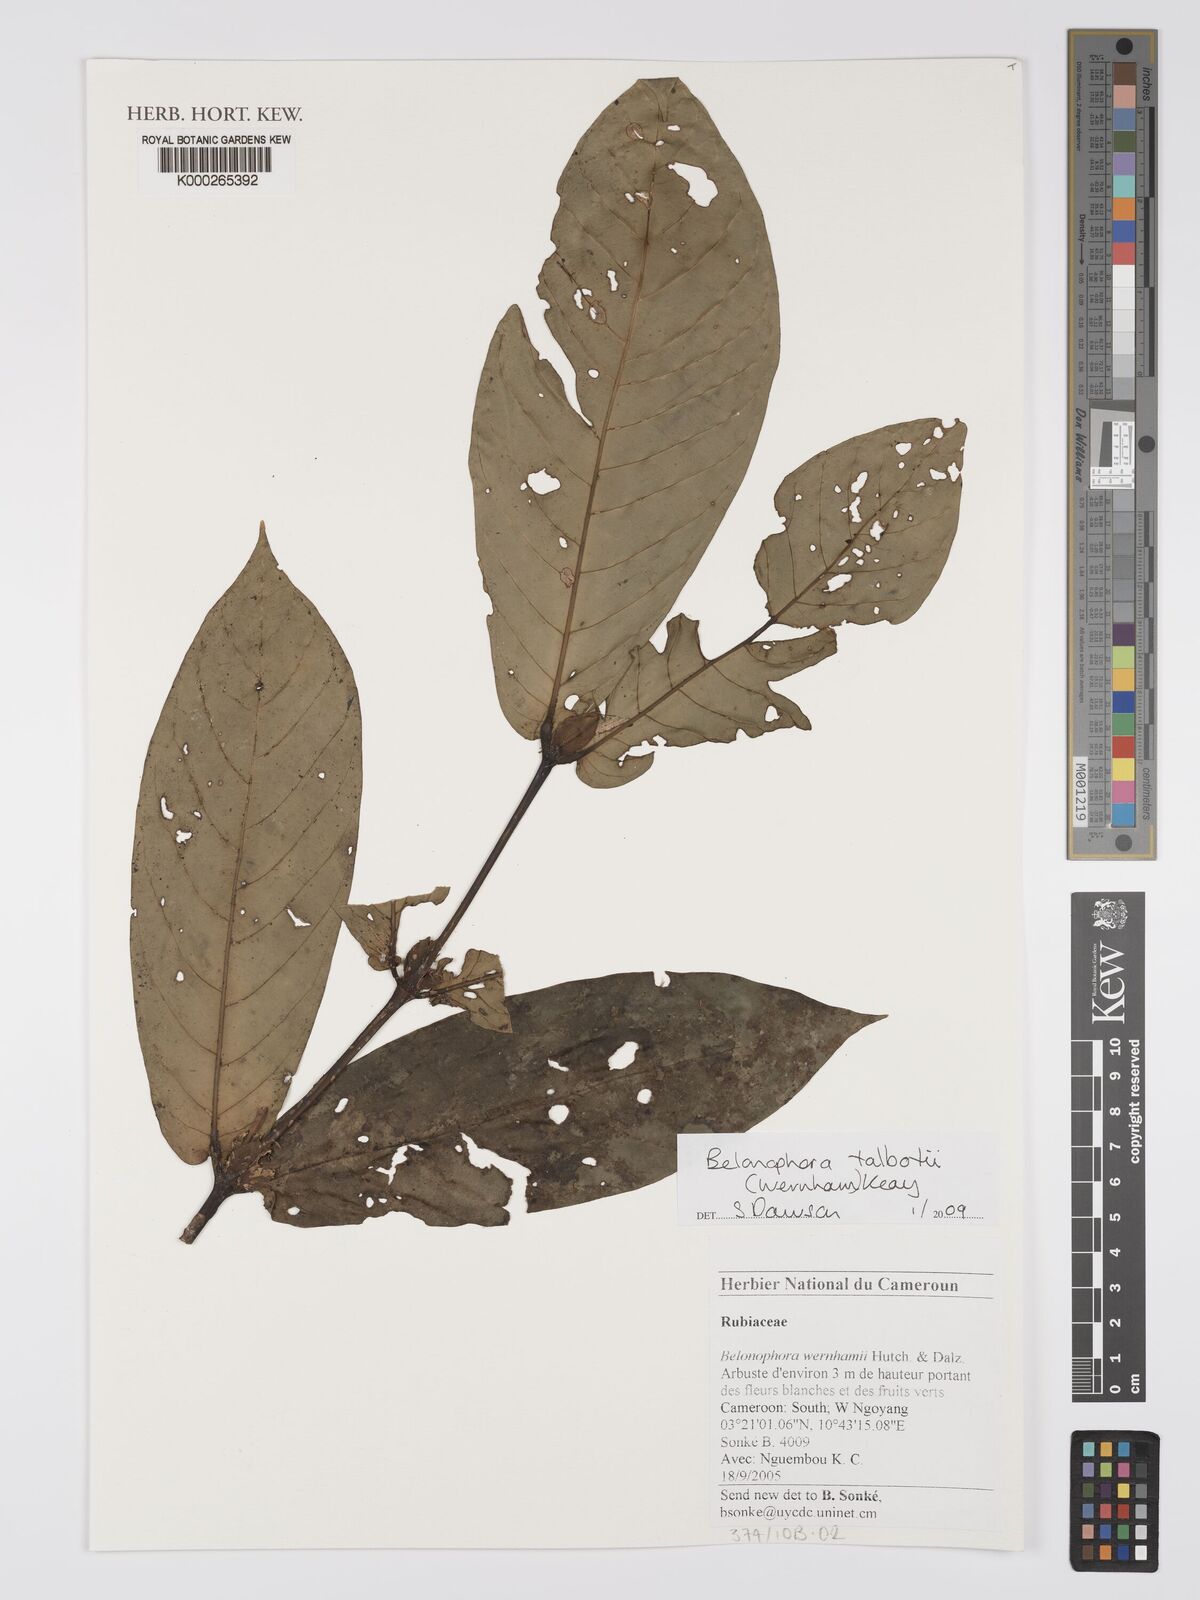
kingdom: Plantae
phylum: Tracheophyta
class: Magnoliopsida
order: Gentianales
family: Rubiaceae
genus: Belonophora
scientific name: Belonophora talbotii
